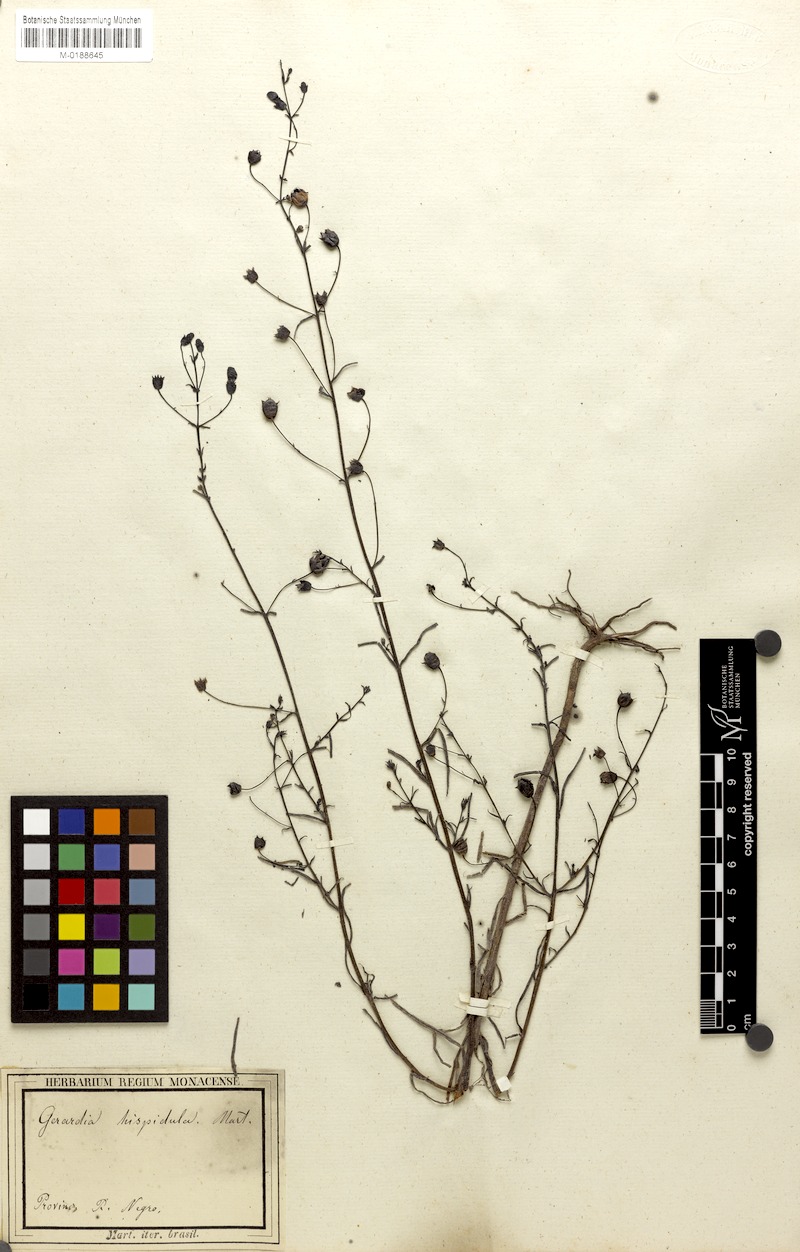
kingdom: Plantae
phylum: Tracheophyta
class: Magnoliopsida
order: Lamiales
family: Orobanchaceae
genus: Agalinis
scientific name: Agalinis hispidula
